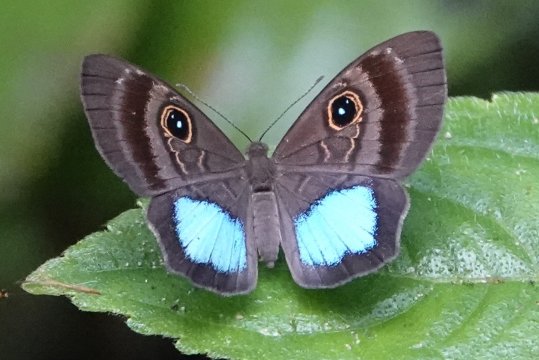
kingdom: Animalia
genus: Mesosemia
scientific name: Mesosemia carissima
